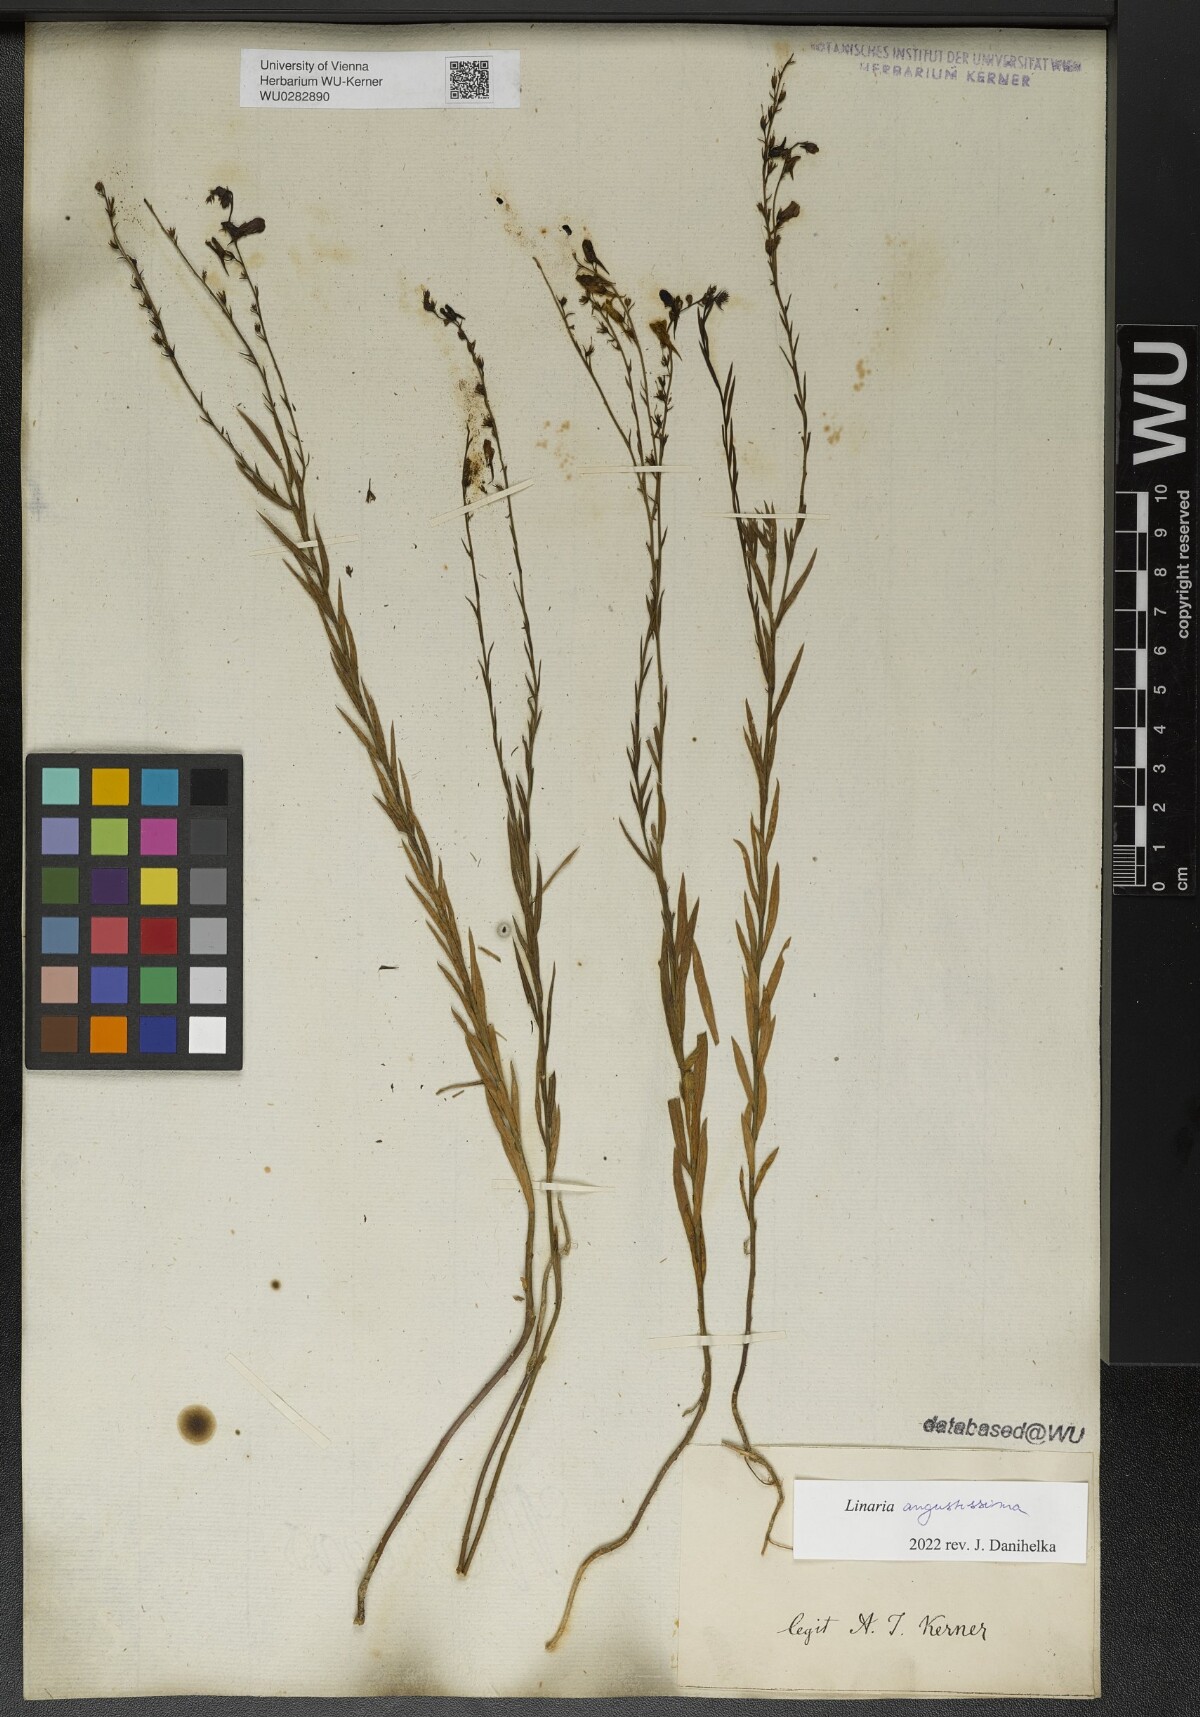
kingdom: Plantae
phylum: Tracheophyta
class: Magnoliopsida
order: Lamiales
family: Plantaginaceae
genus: Linaria
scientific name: Linaria angustissima
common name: Italian toadflax
